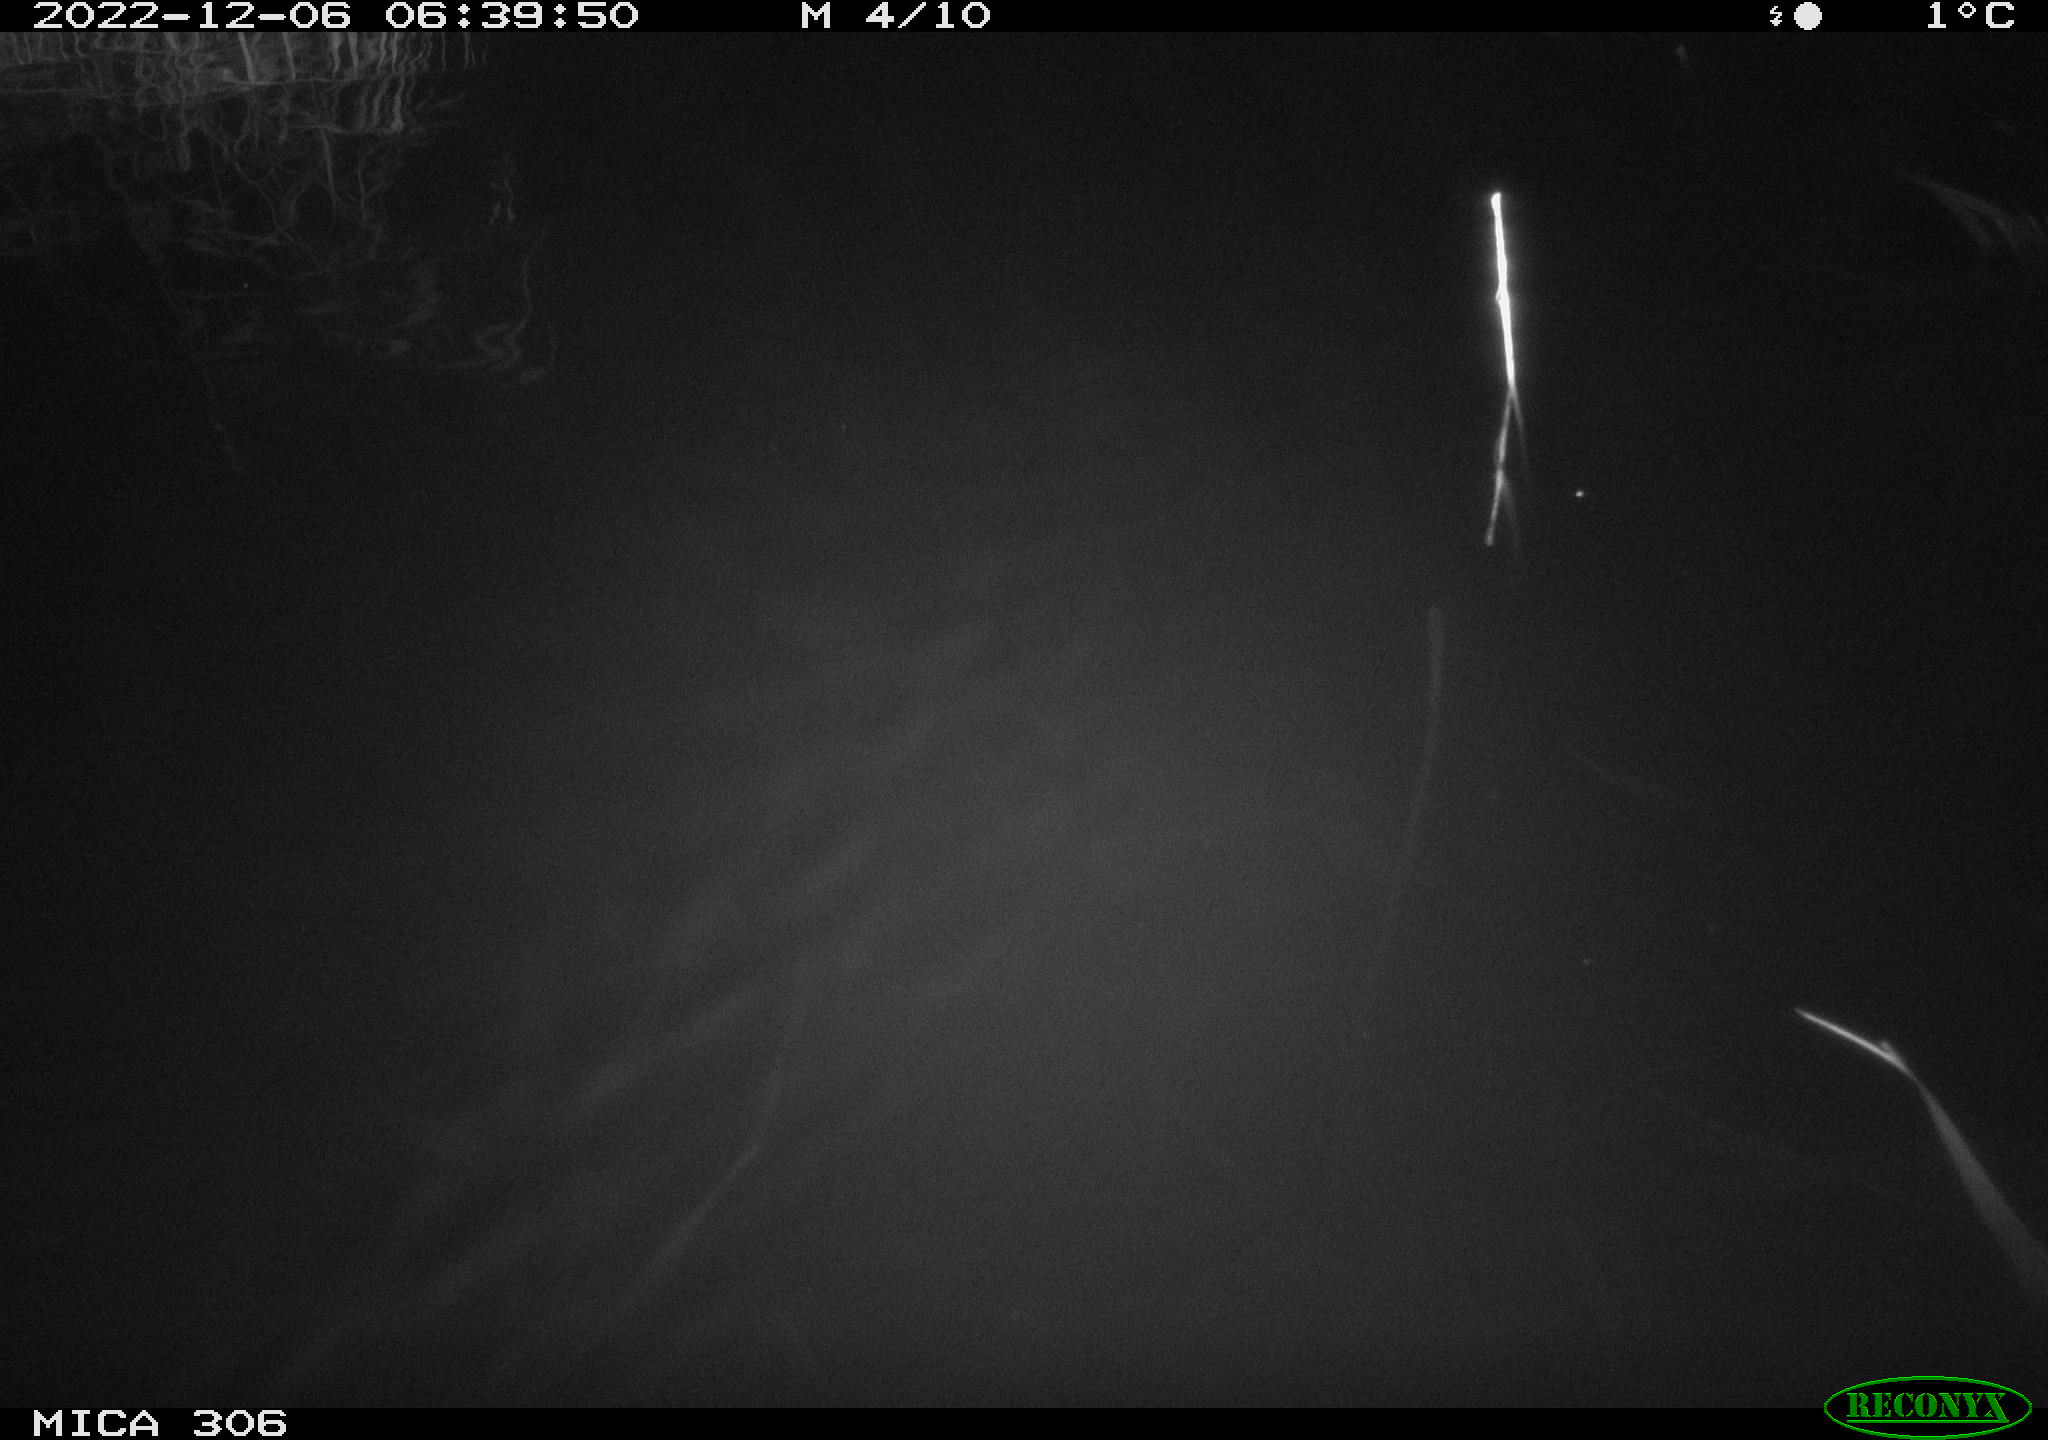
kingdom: Animalia
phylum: Chordata
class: Mammalia
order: Rodentia
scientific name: Rodentia
